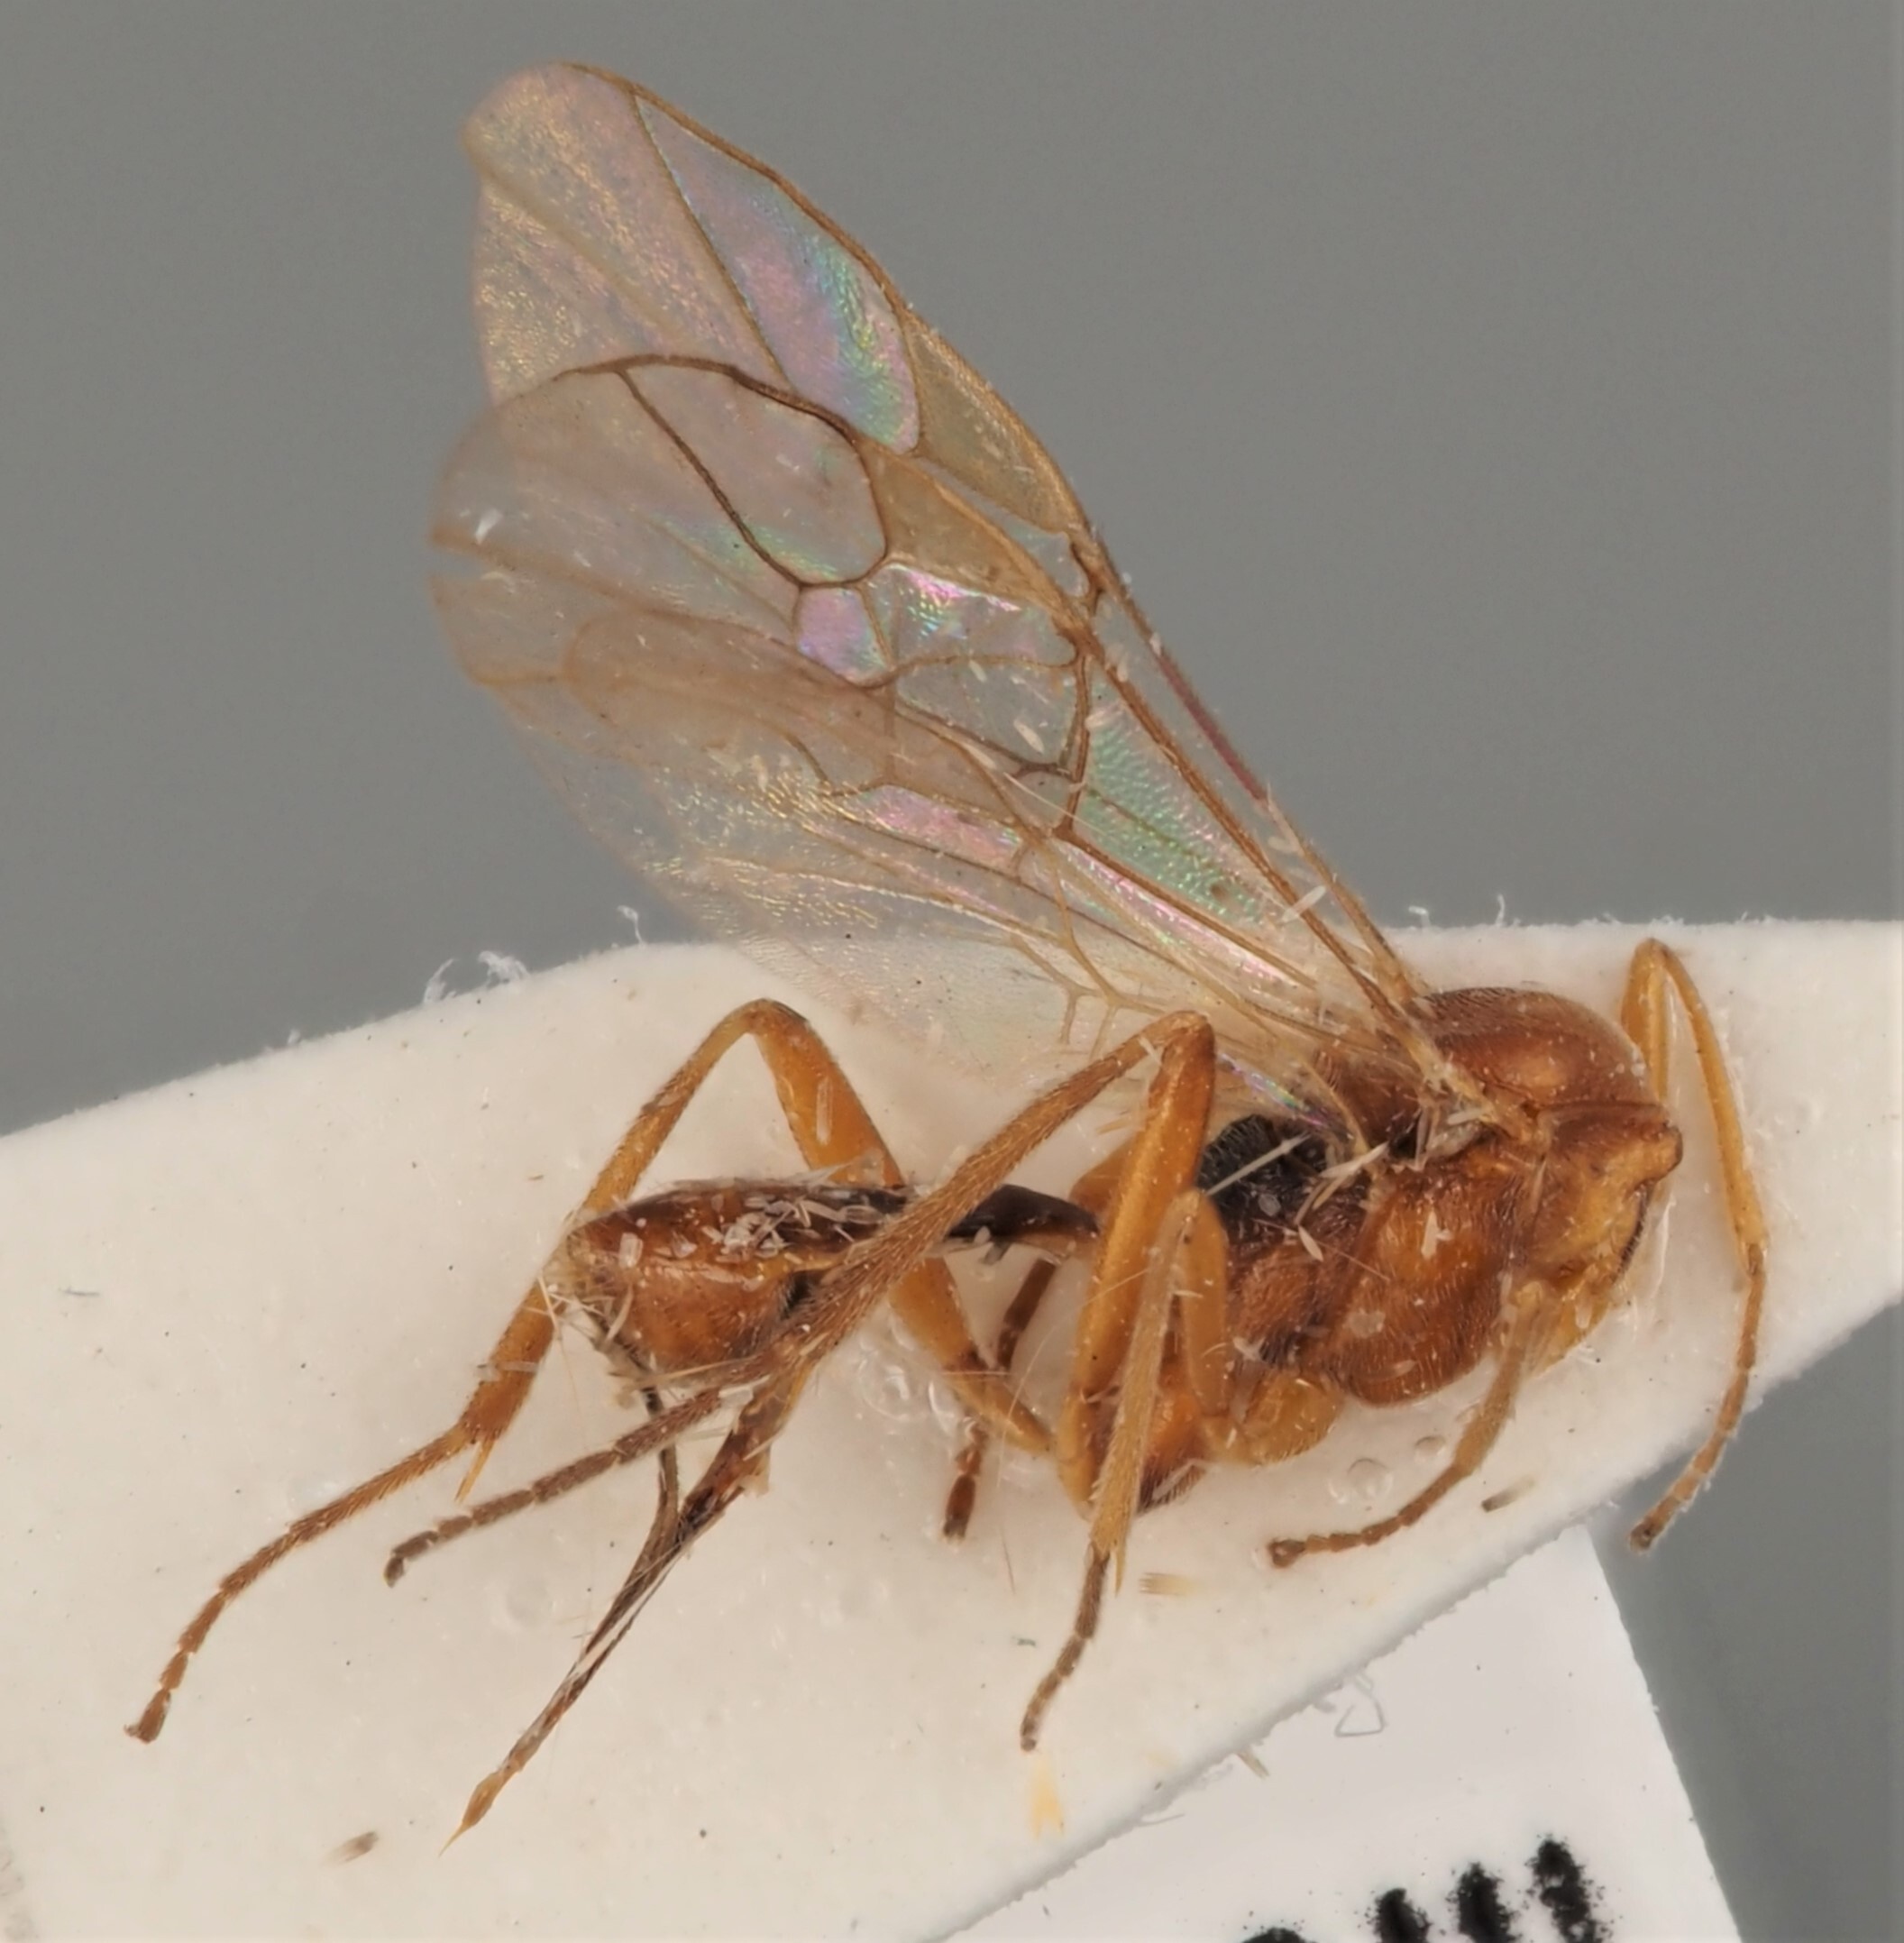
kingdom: Animalia
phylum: Arthropoda
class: Insecta
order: Hymenoptera
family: Braconidae
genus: Meteorus
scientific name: Meteorus versicolor
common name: Braconid wasp
